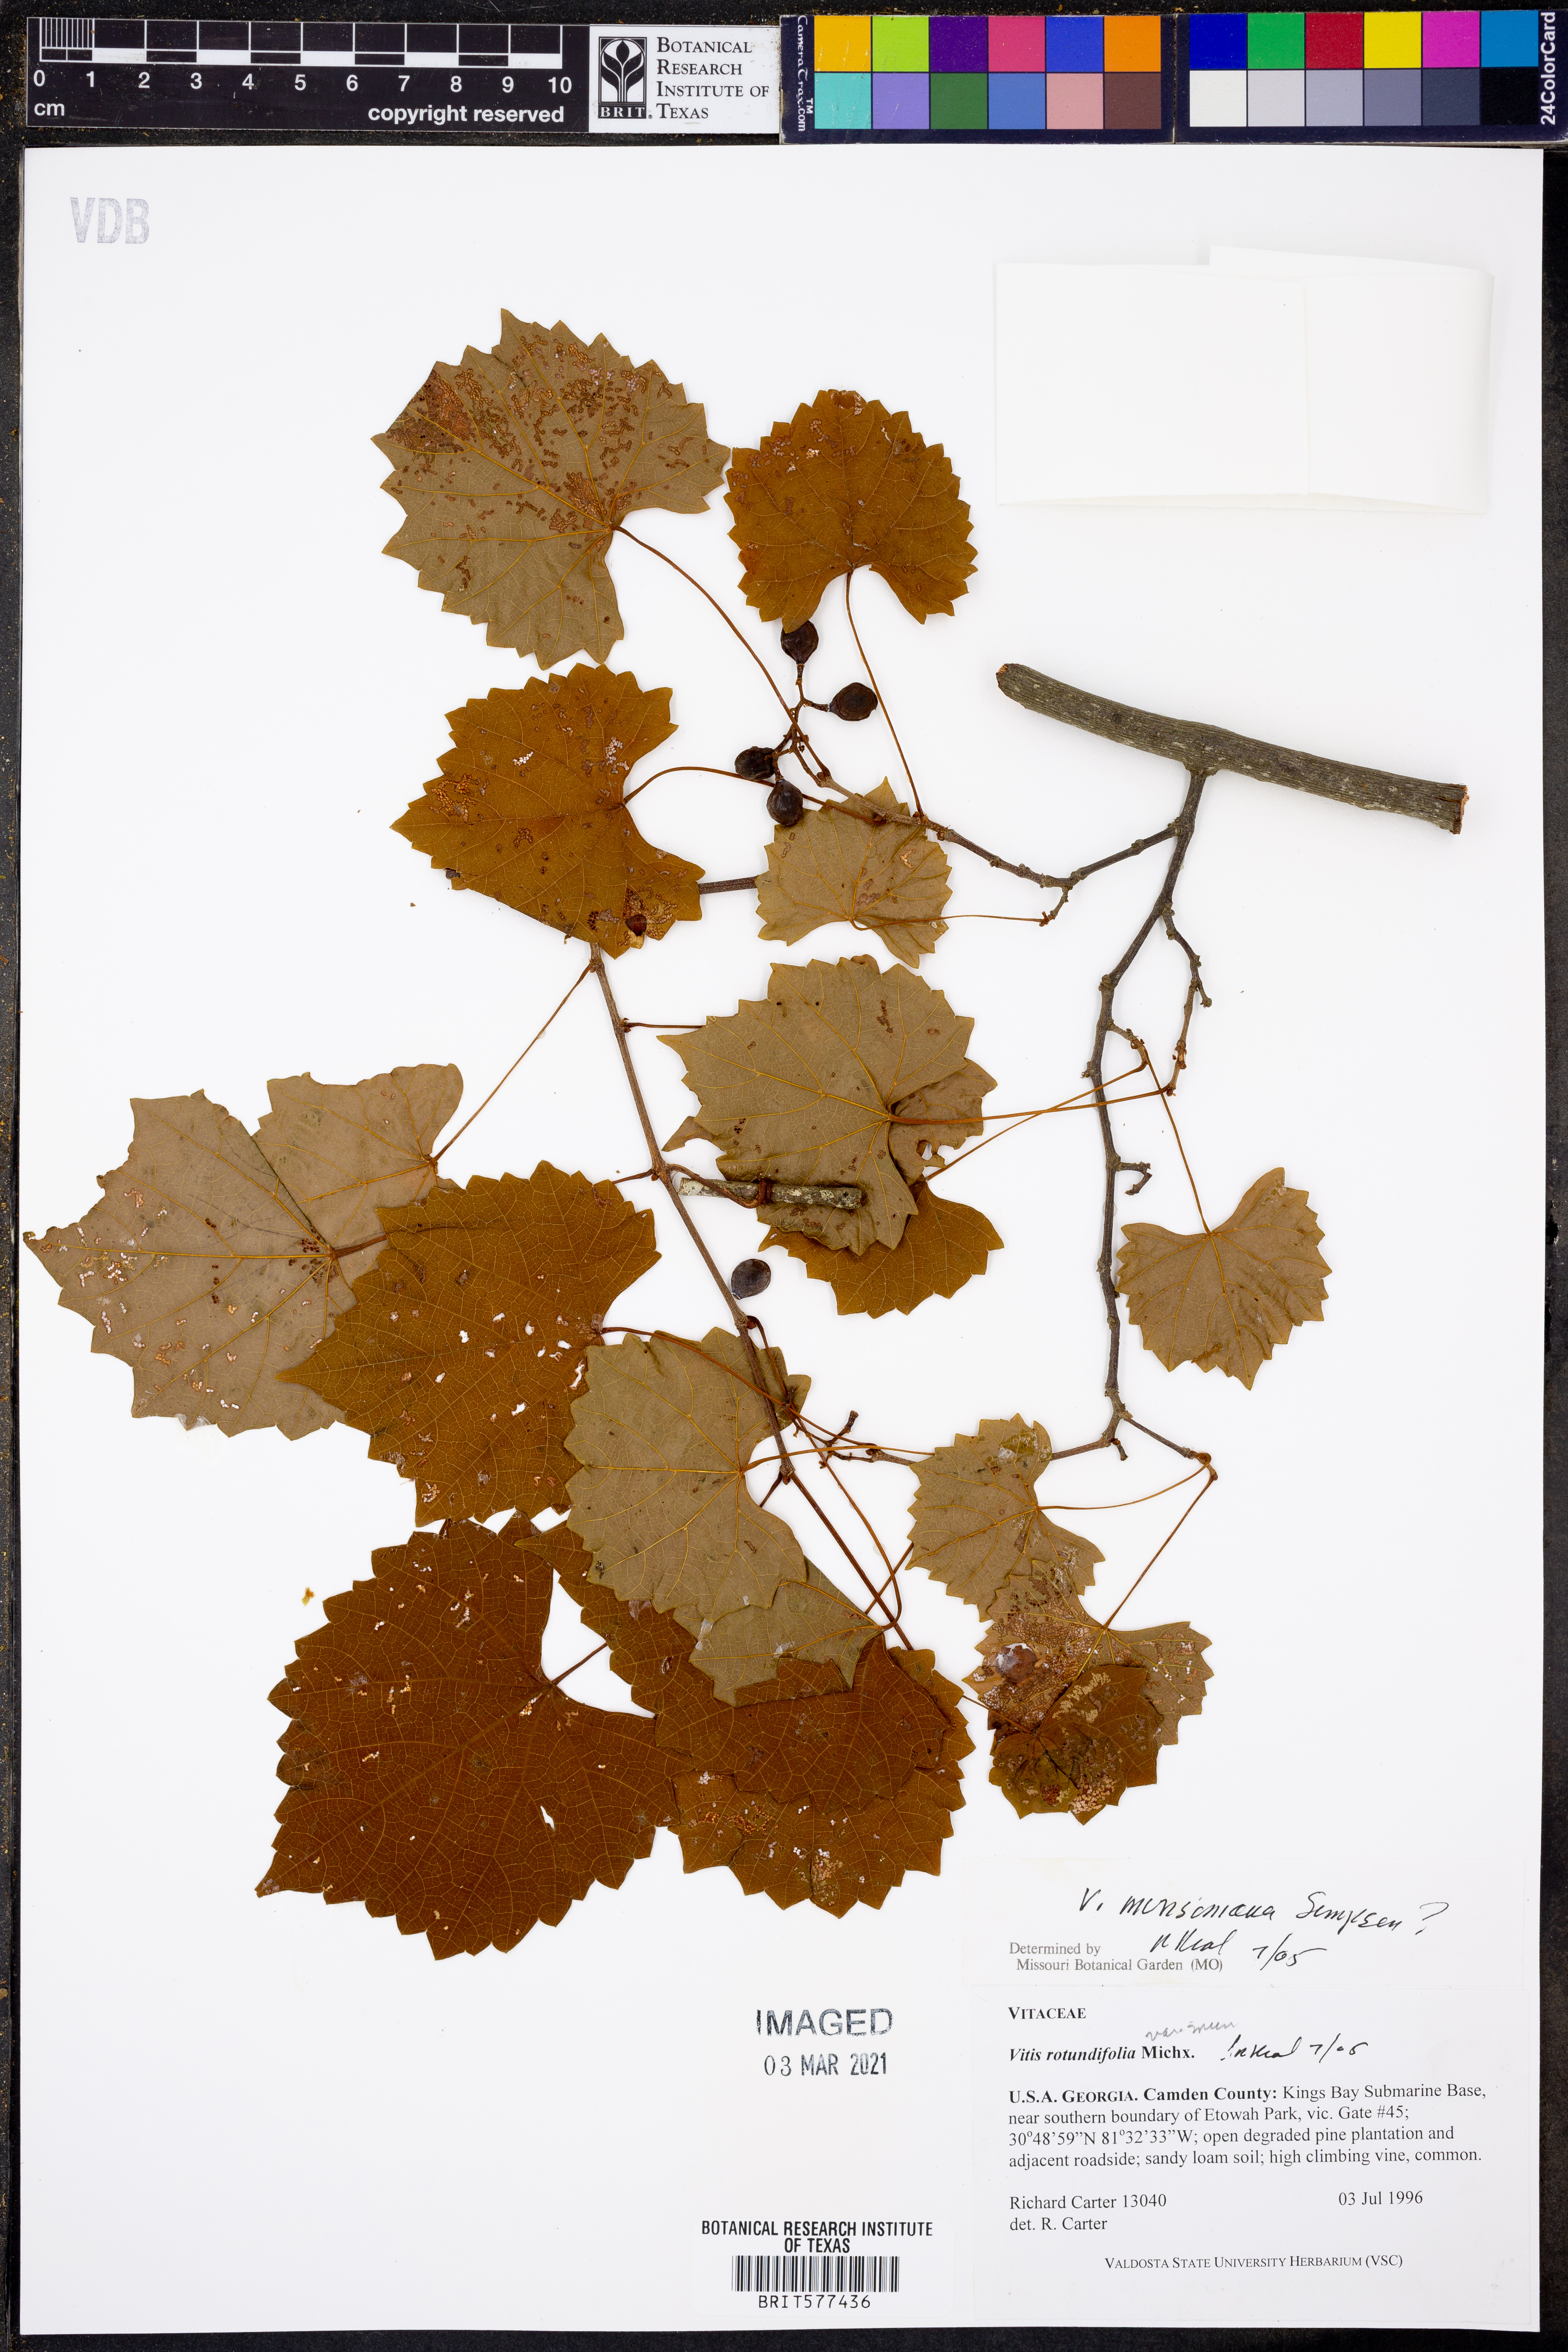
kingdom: Plantae
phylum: Tracheophyta
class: Magnoliopsida
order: Vitales
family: Vitaceae
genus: Vitis
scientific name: Vitis rotundifolia
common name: Muscadine grape
